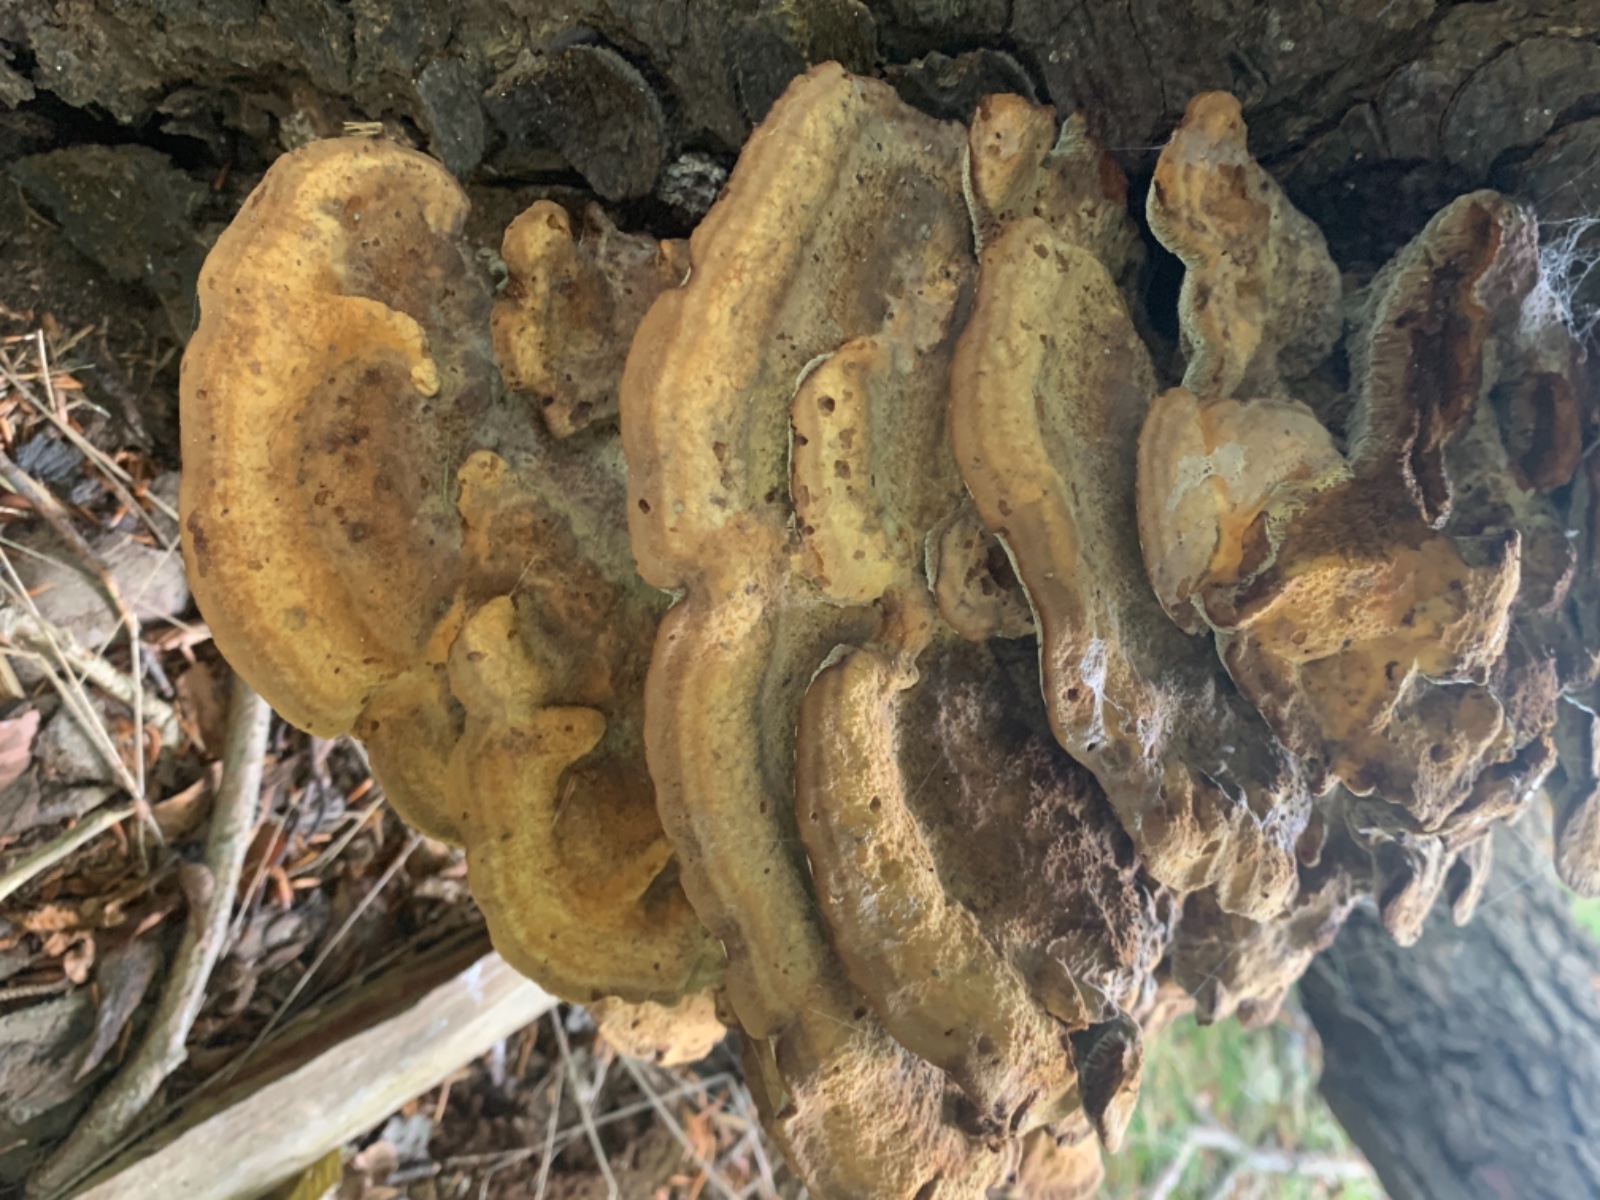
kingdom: Fungi
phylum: Basidiomycota
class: Agaricomycetes
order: Polyporales
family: Laetiporaceae
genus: Phaeolus
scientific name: Phaeolus schweinitzii
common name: brunporesvamp
